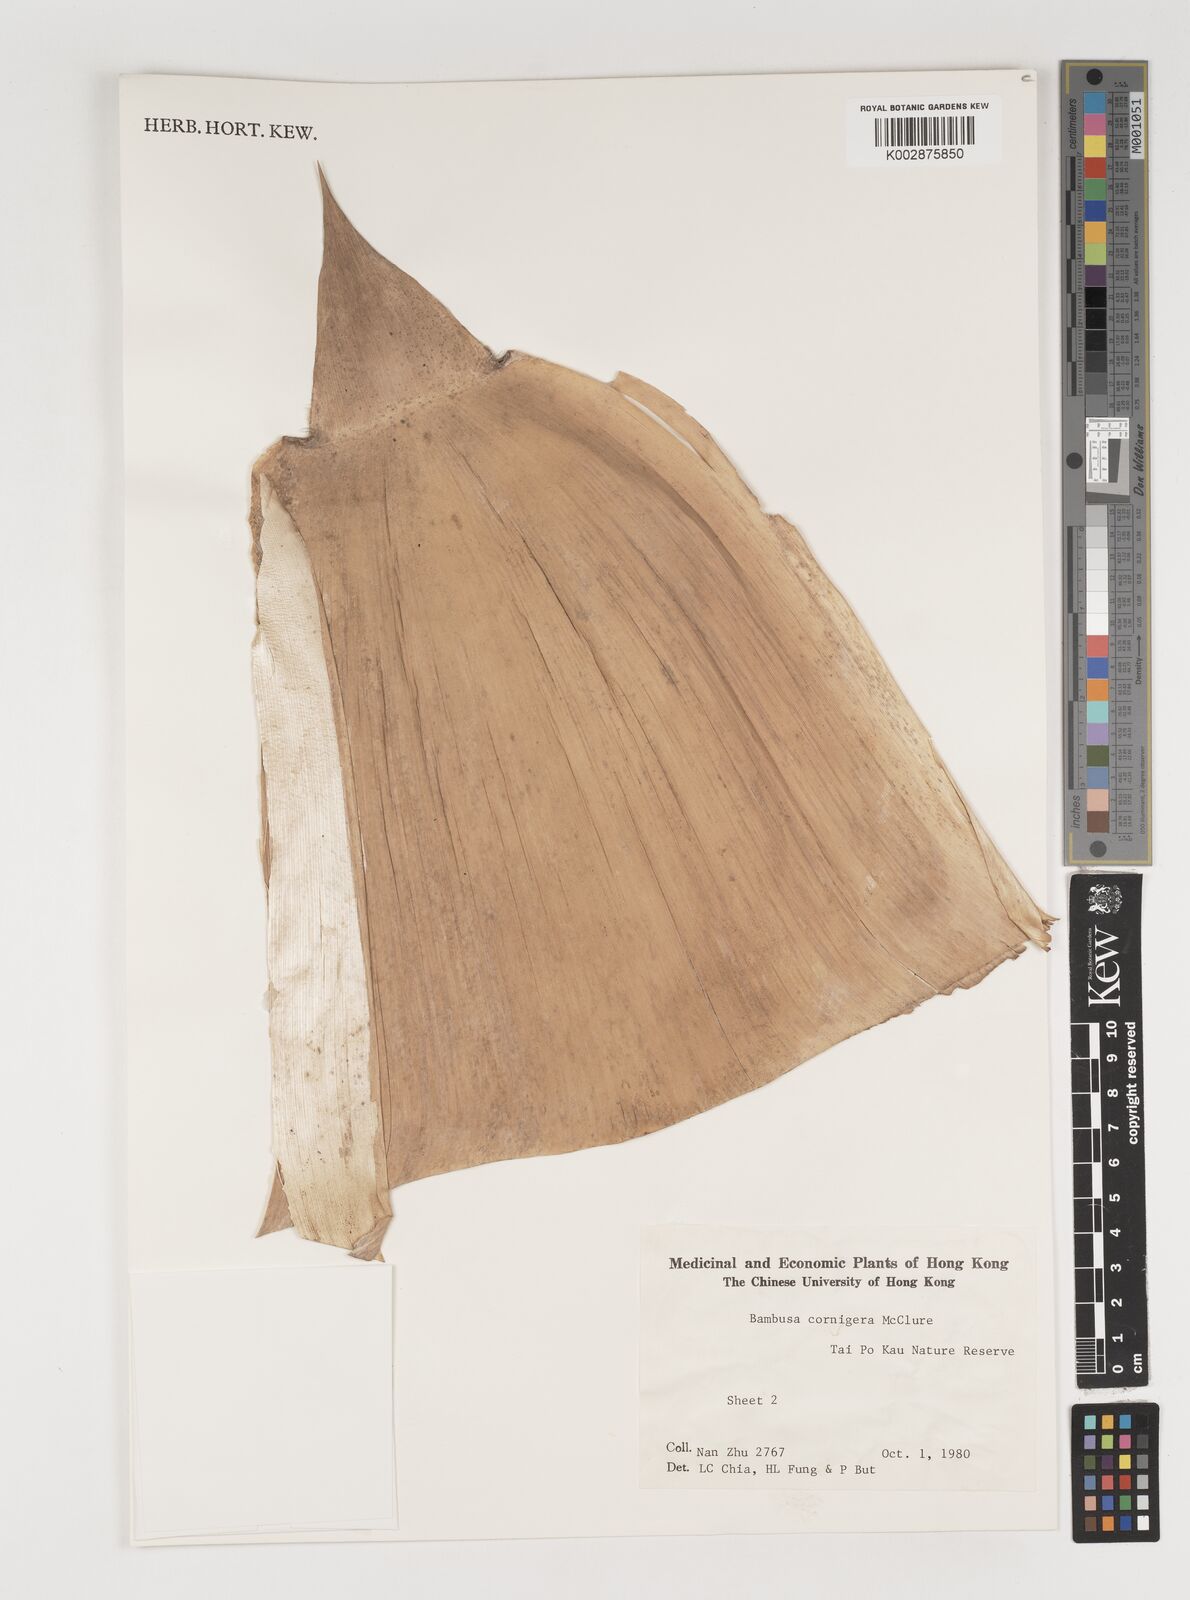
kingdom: Plantae
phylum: Tracheophyta
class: Liliopsida
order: Poales
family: Poaceae
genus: Bambusa
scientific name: Bambusa cornigera
